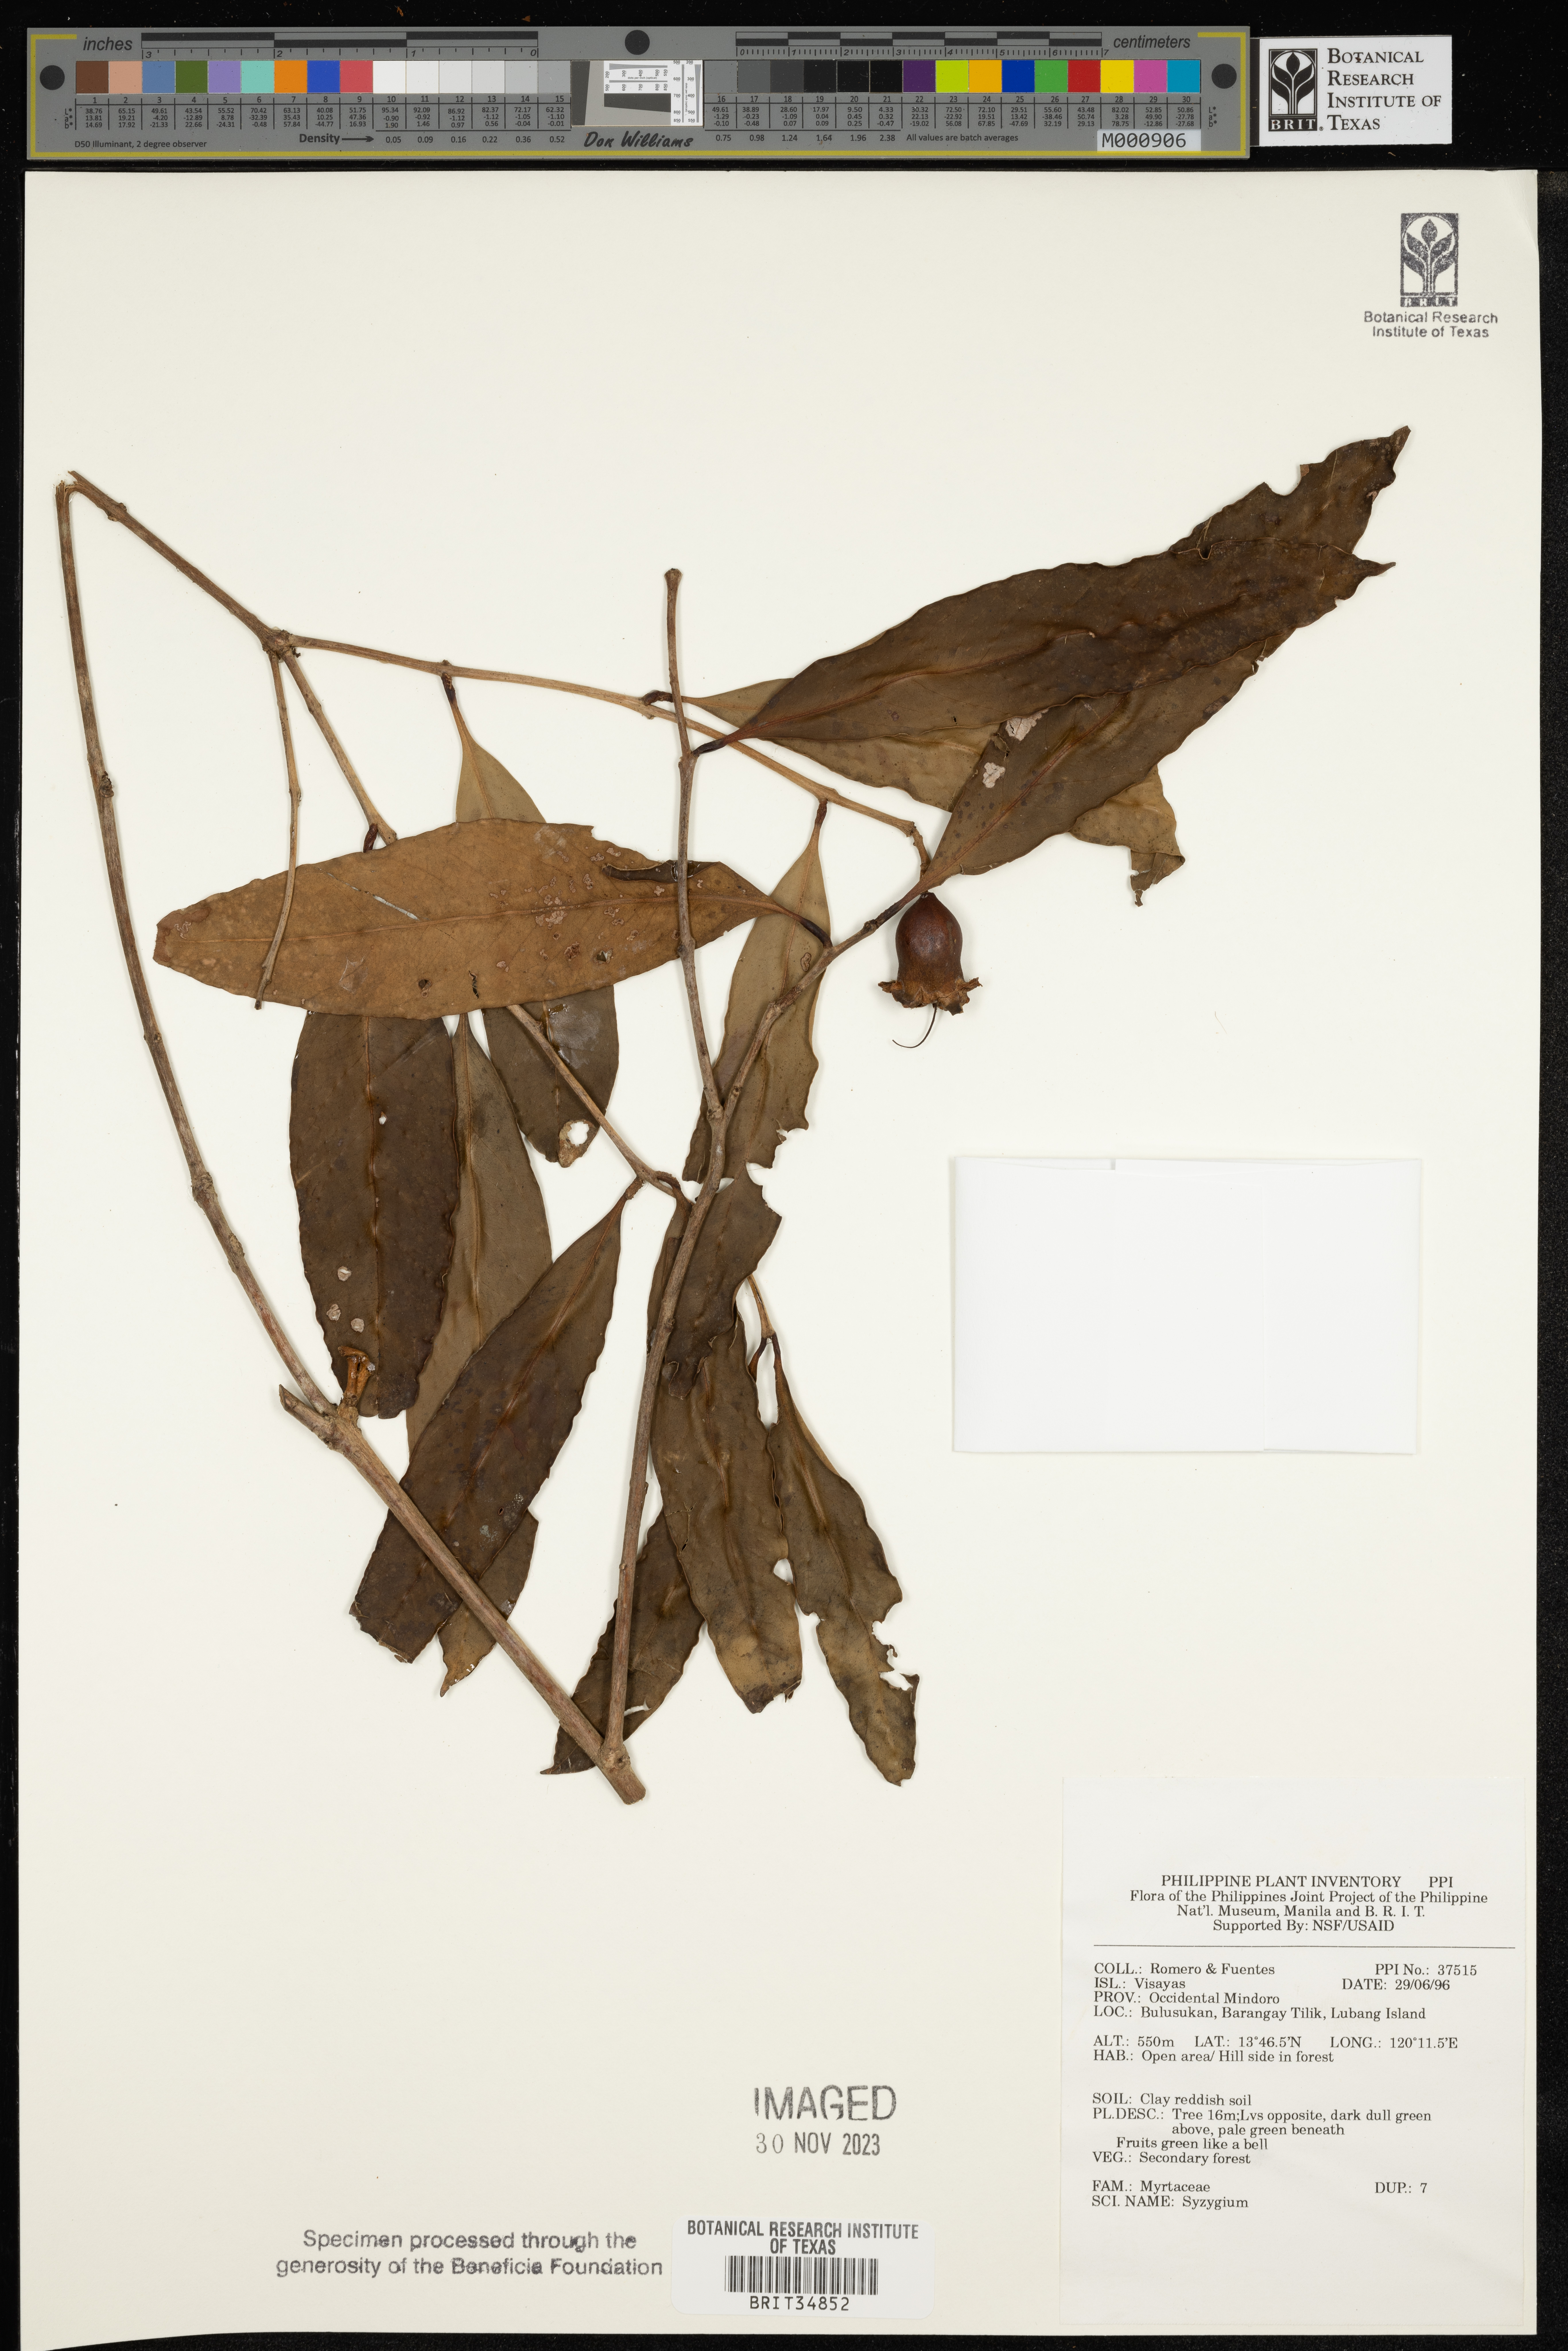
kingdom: Plantae
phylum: Tracheophyta
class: Magnoliopsida
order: Myrtales
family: Myrtaceae
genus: Syzygium
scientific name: Syzygium
